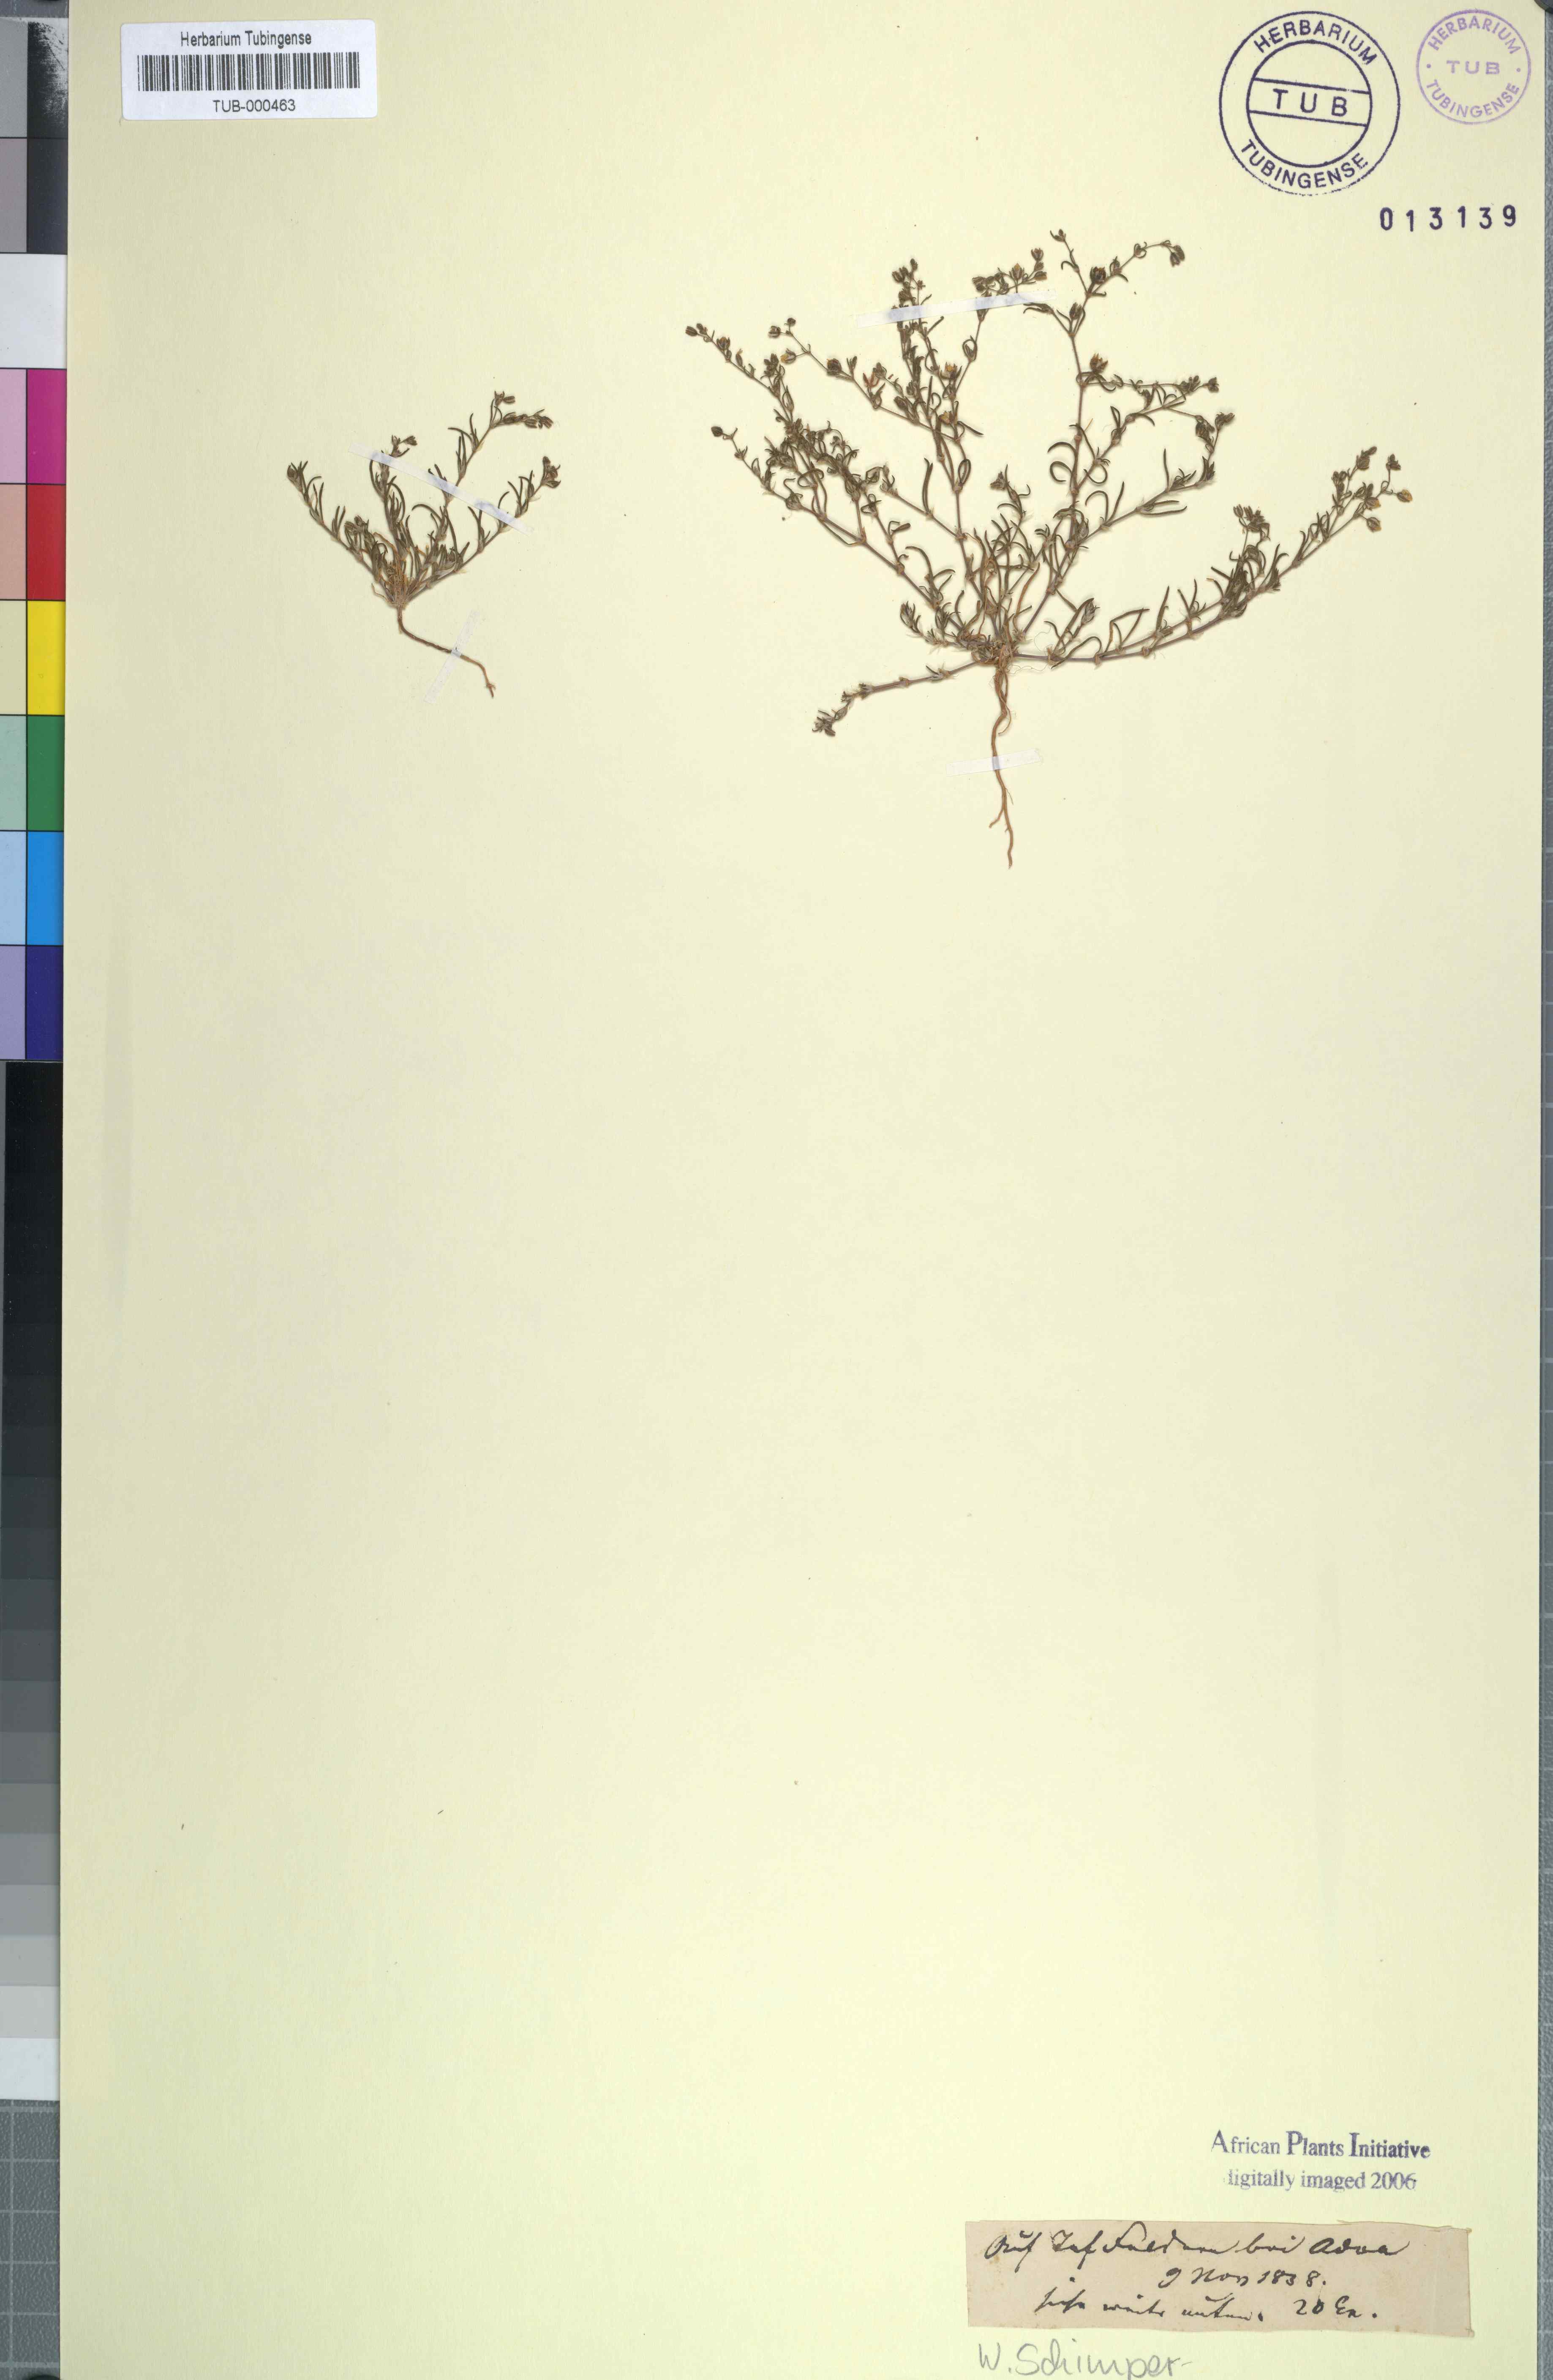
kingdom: Plantae
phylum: Tracheophyta
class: Magnoliopsida
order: Caryophyllales
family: Caryophyllaceae
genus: Spergularia
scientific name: Spergularia media
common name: Greater sea-spurrey
